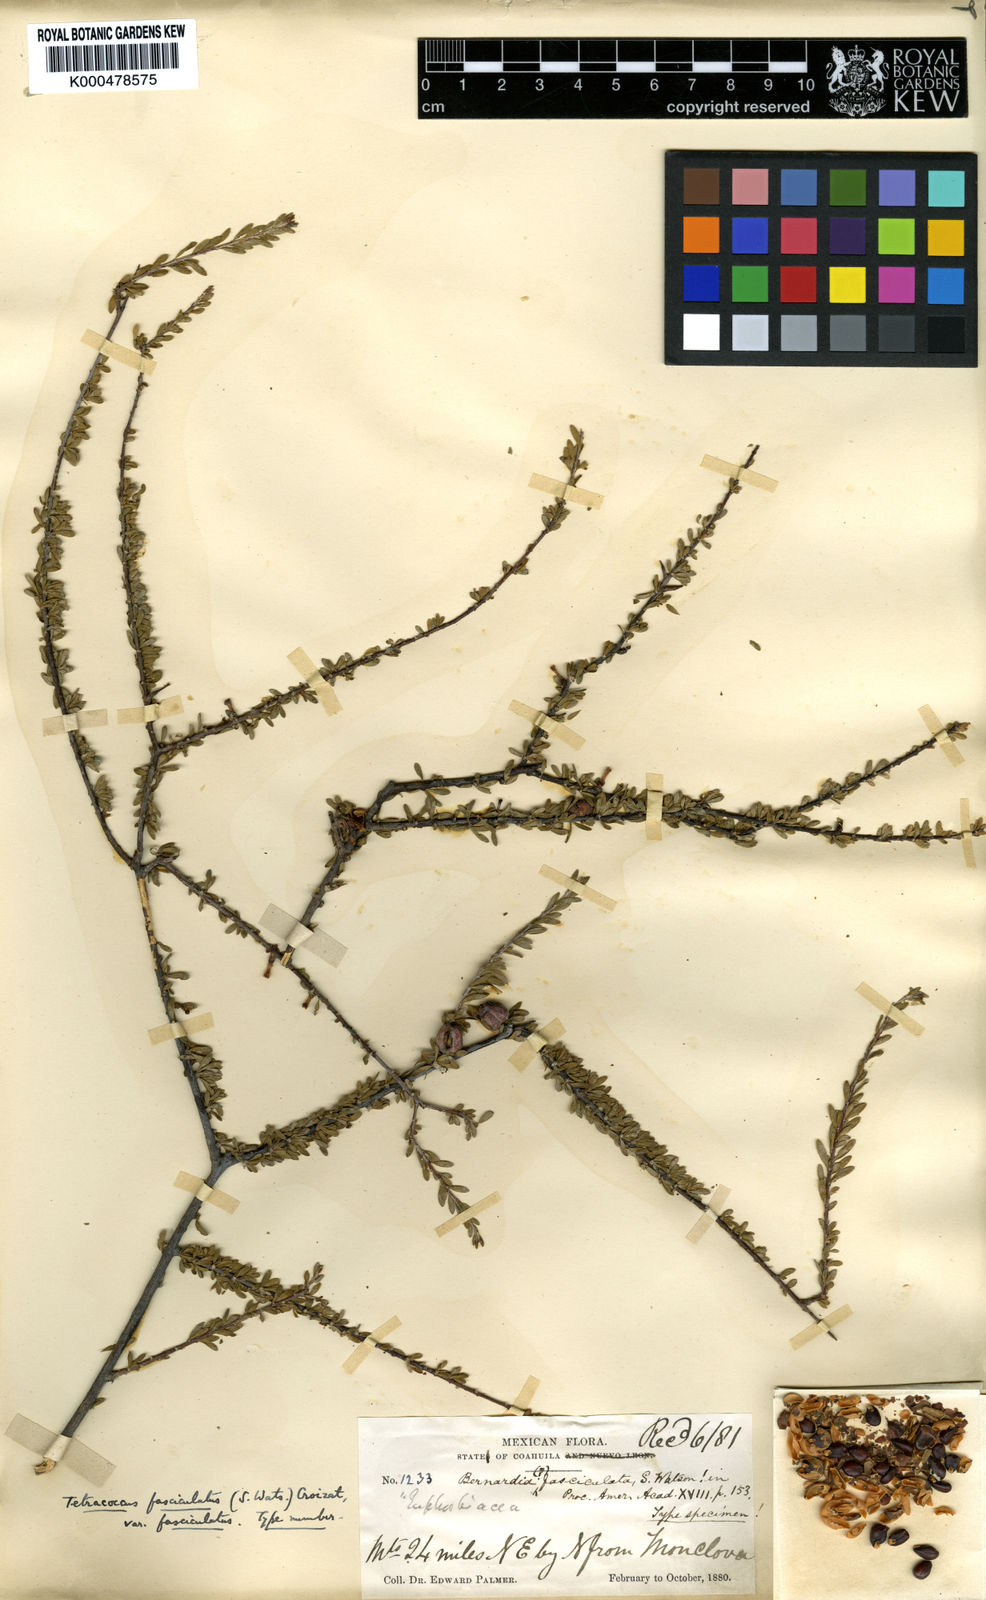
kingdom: Plantae
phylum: Tracheophyta
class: Magnoliopsida
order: Malpighiales
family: Picrodendraceae
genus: Tetracoccus
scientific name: Tetracoccus fasciculatus
